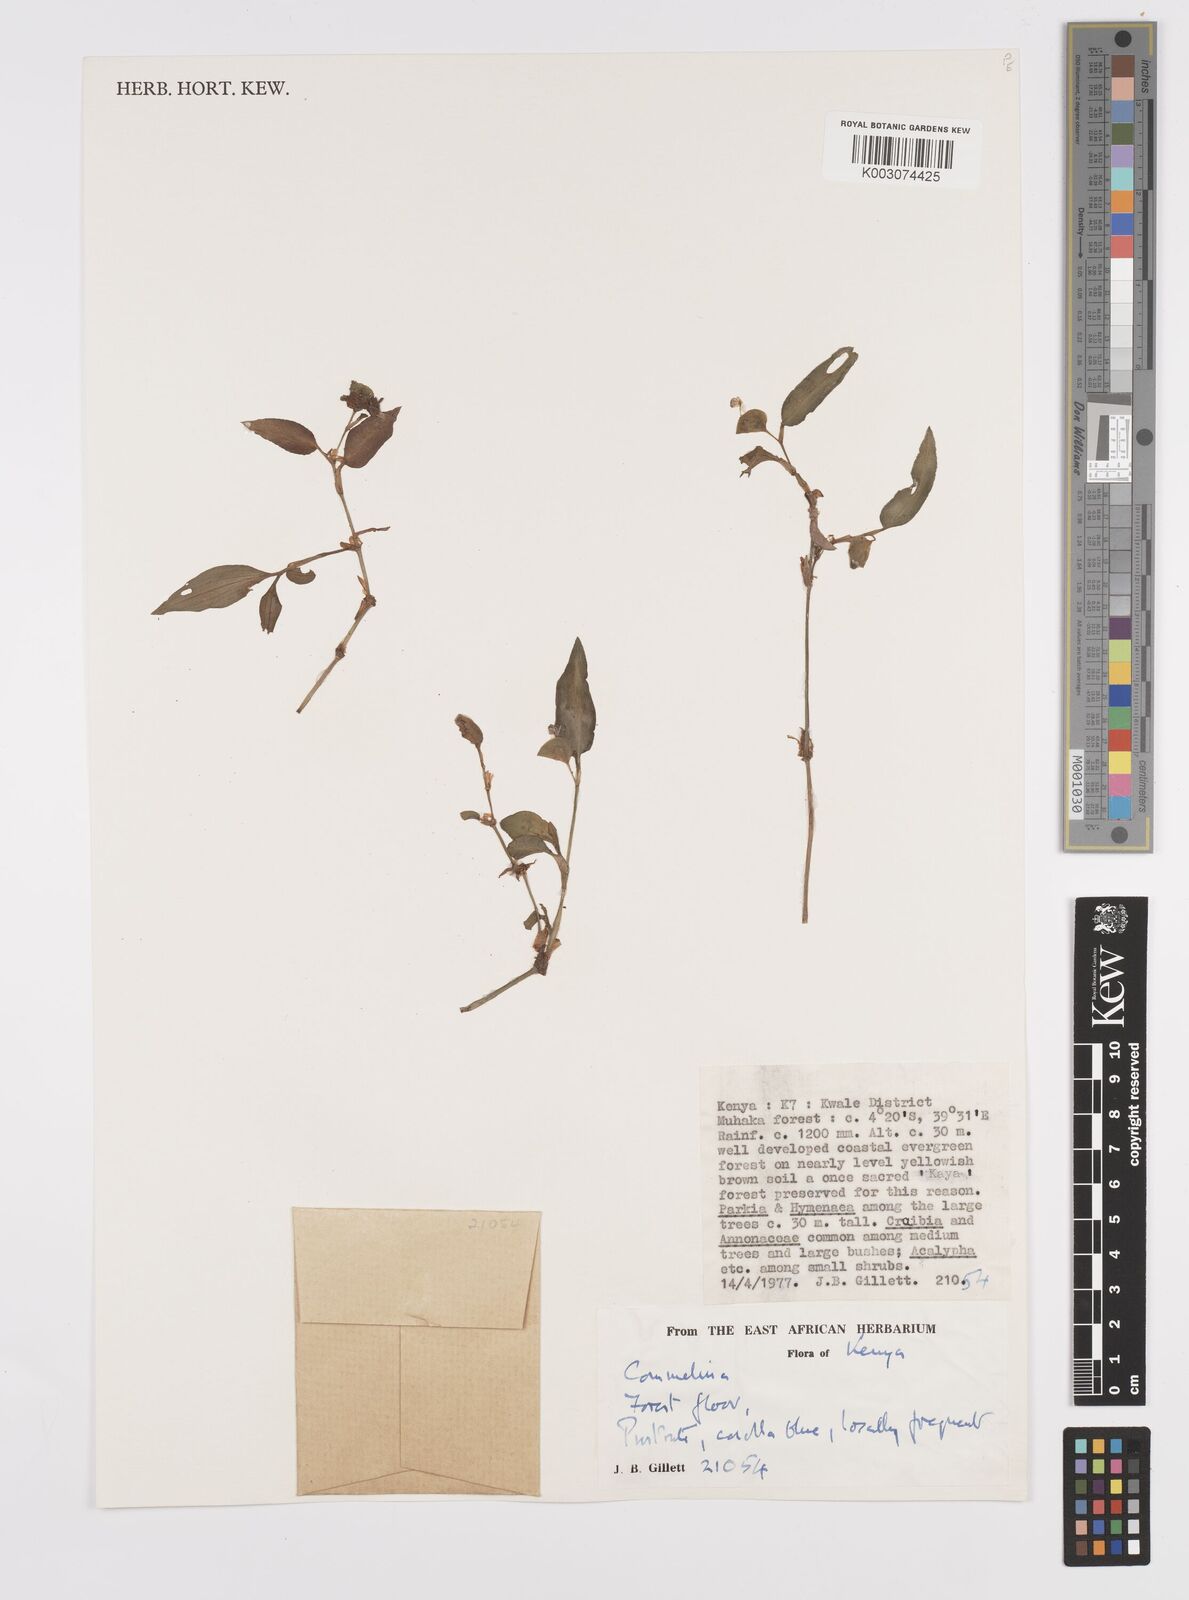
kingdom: Plantae
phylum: Tracheophyta
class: Liliopsida
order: Commelinales
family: Commelinaceae
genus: Commelina
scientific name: Commelina forskaolii
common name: Rat's ear
